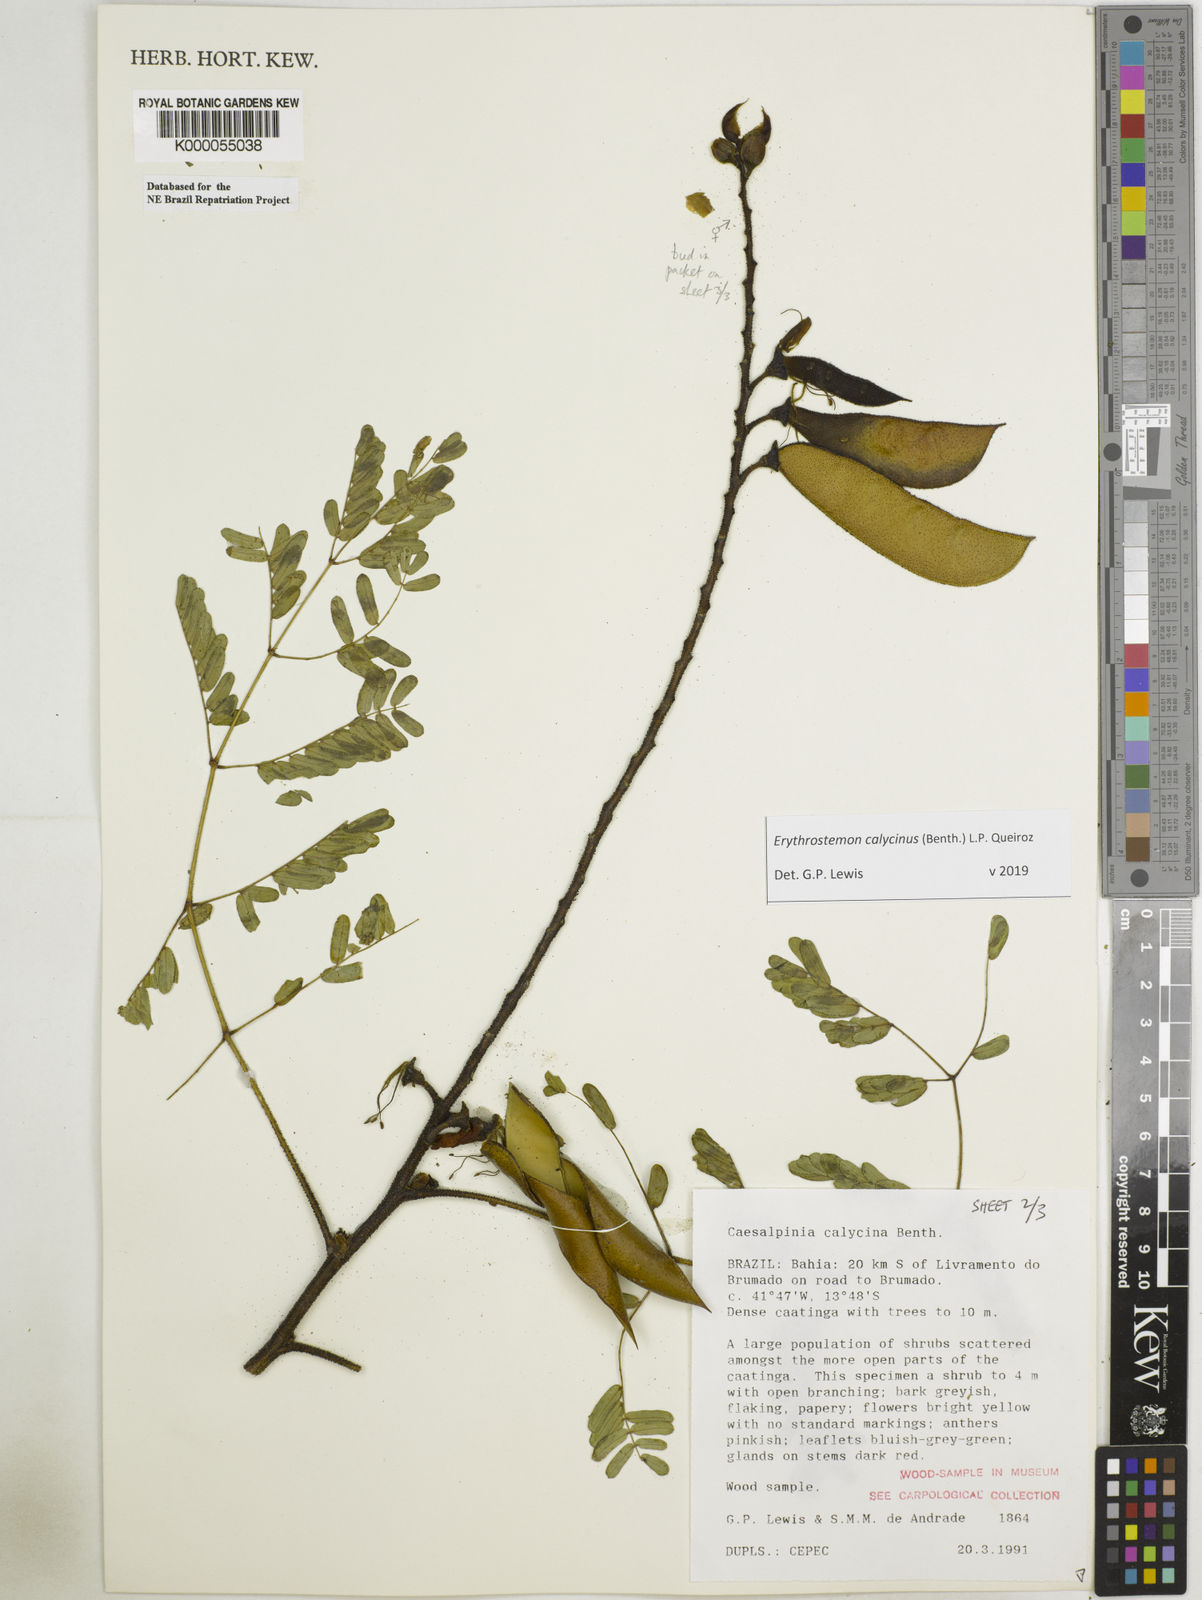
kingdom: Plantae
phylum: Tracheophyta
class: Magnoliopsida
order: Malpighiales
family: Passifloraceae
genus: Adenia
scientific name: Adenia mannii
